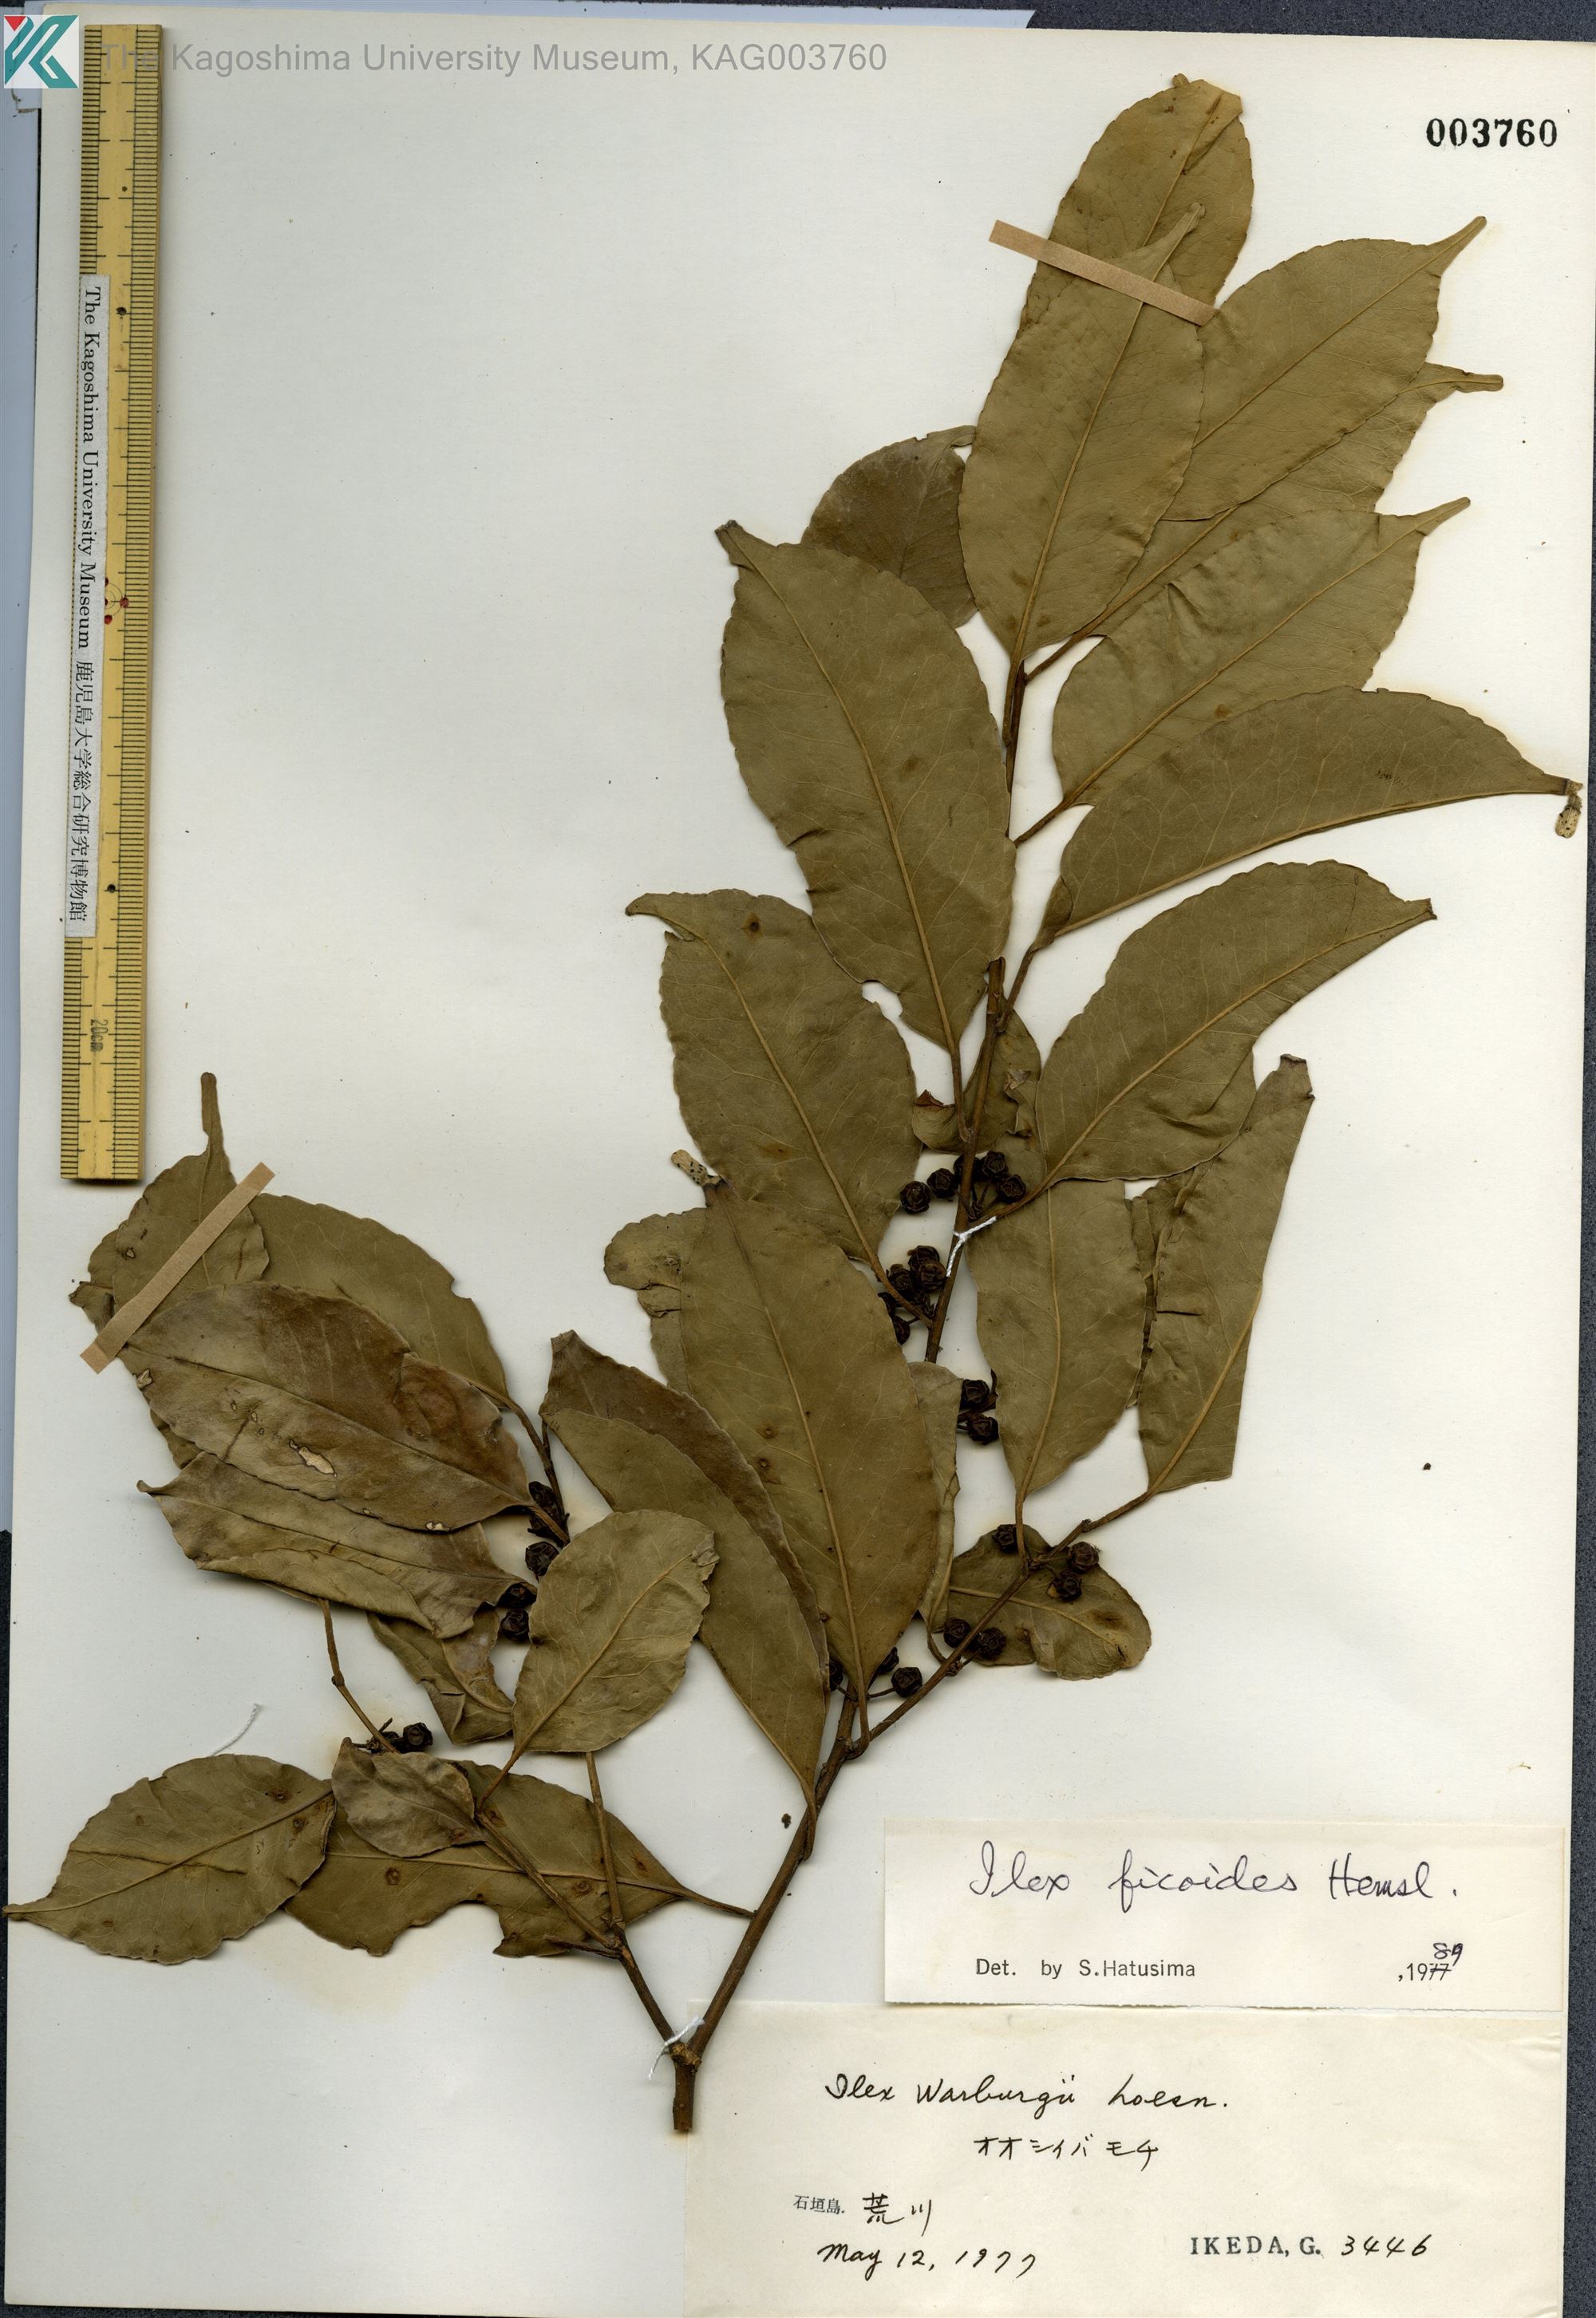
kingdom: Plantae
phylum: Tracheophyta
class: Magnoliopsida
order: Aquifoliales
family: Aquifoliaceae
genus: Ilex
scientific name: Ilex warburgii
